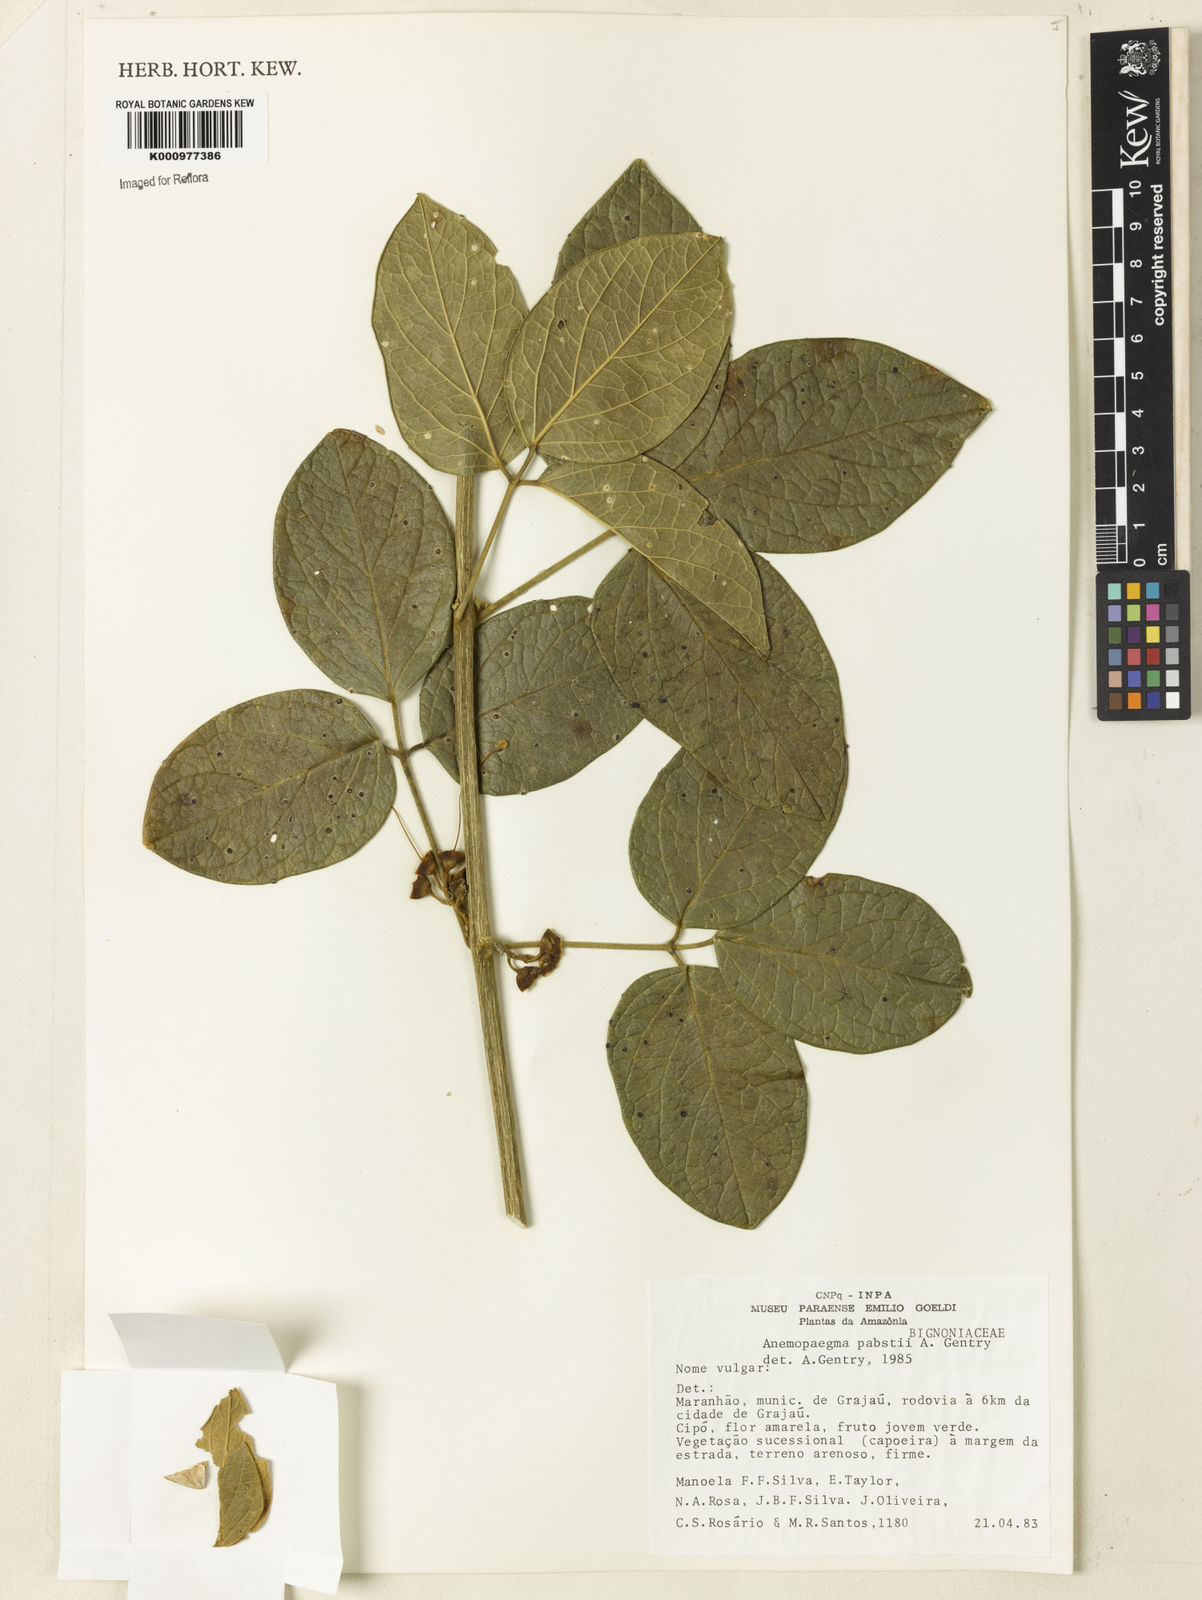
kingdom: Plantae
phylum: Tracheophyta
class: Magnoliopsida
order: Lamiales
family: Bignoniaceae
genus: Anemopaegma
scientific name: Anemopaegma pabstii
